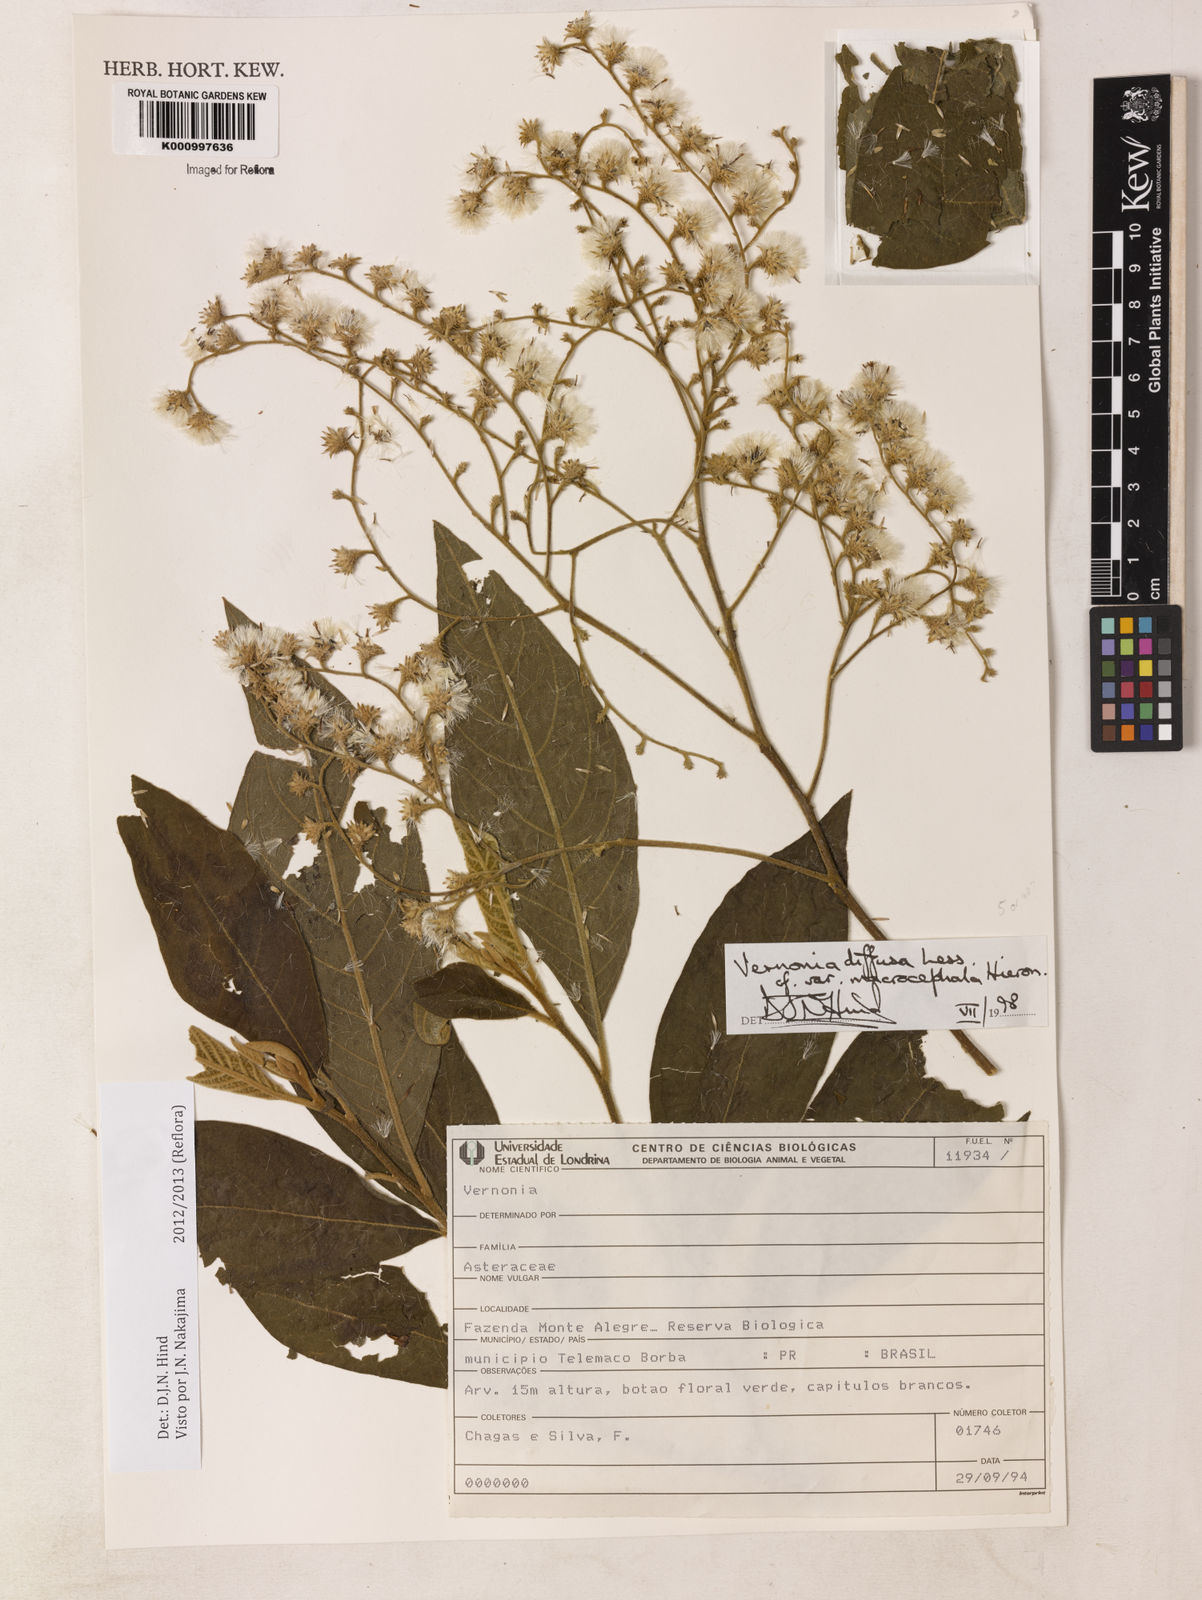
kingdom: Plantae
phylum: Tracheophyta
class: Magnoliopsida
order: Asterales
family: Asteraceae
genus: Vernonanthura
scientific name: Vernonanthura divaricata
